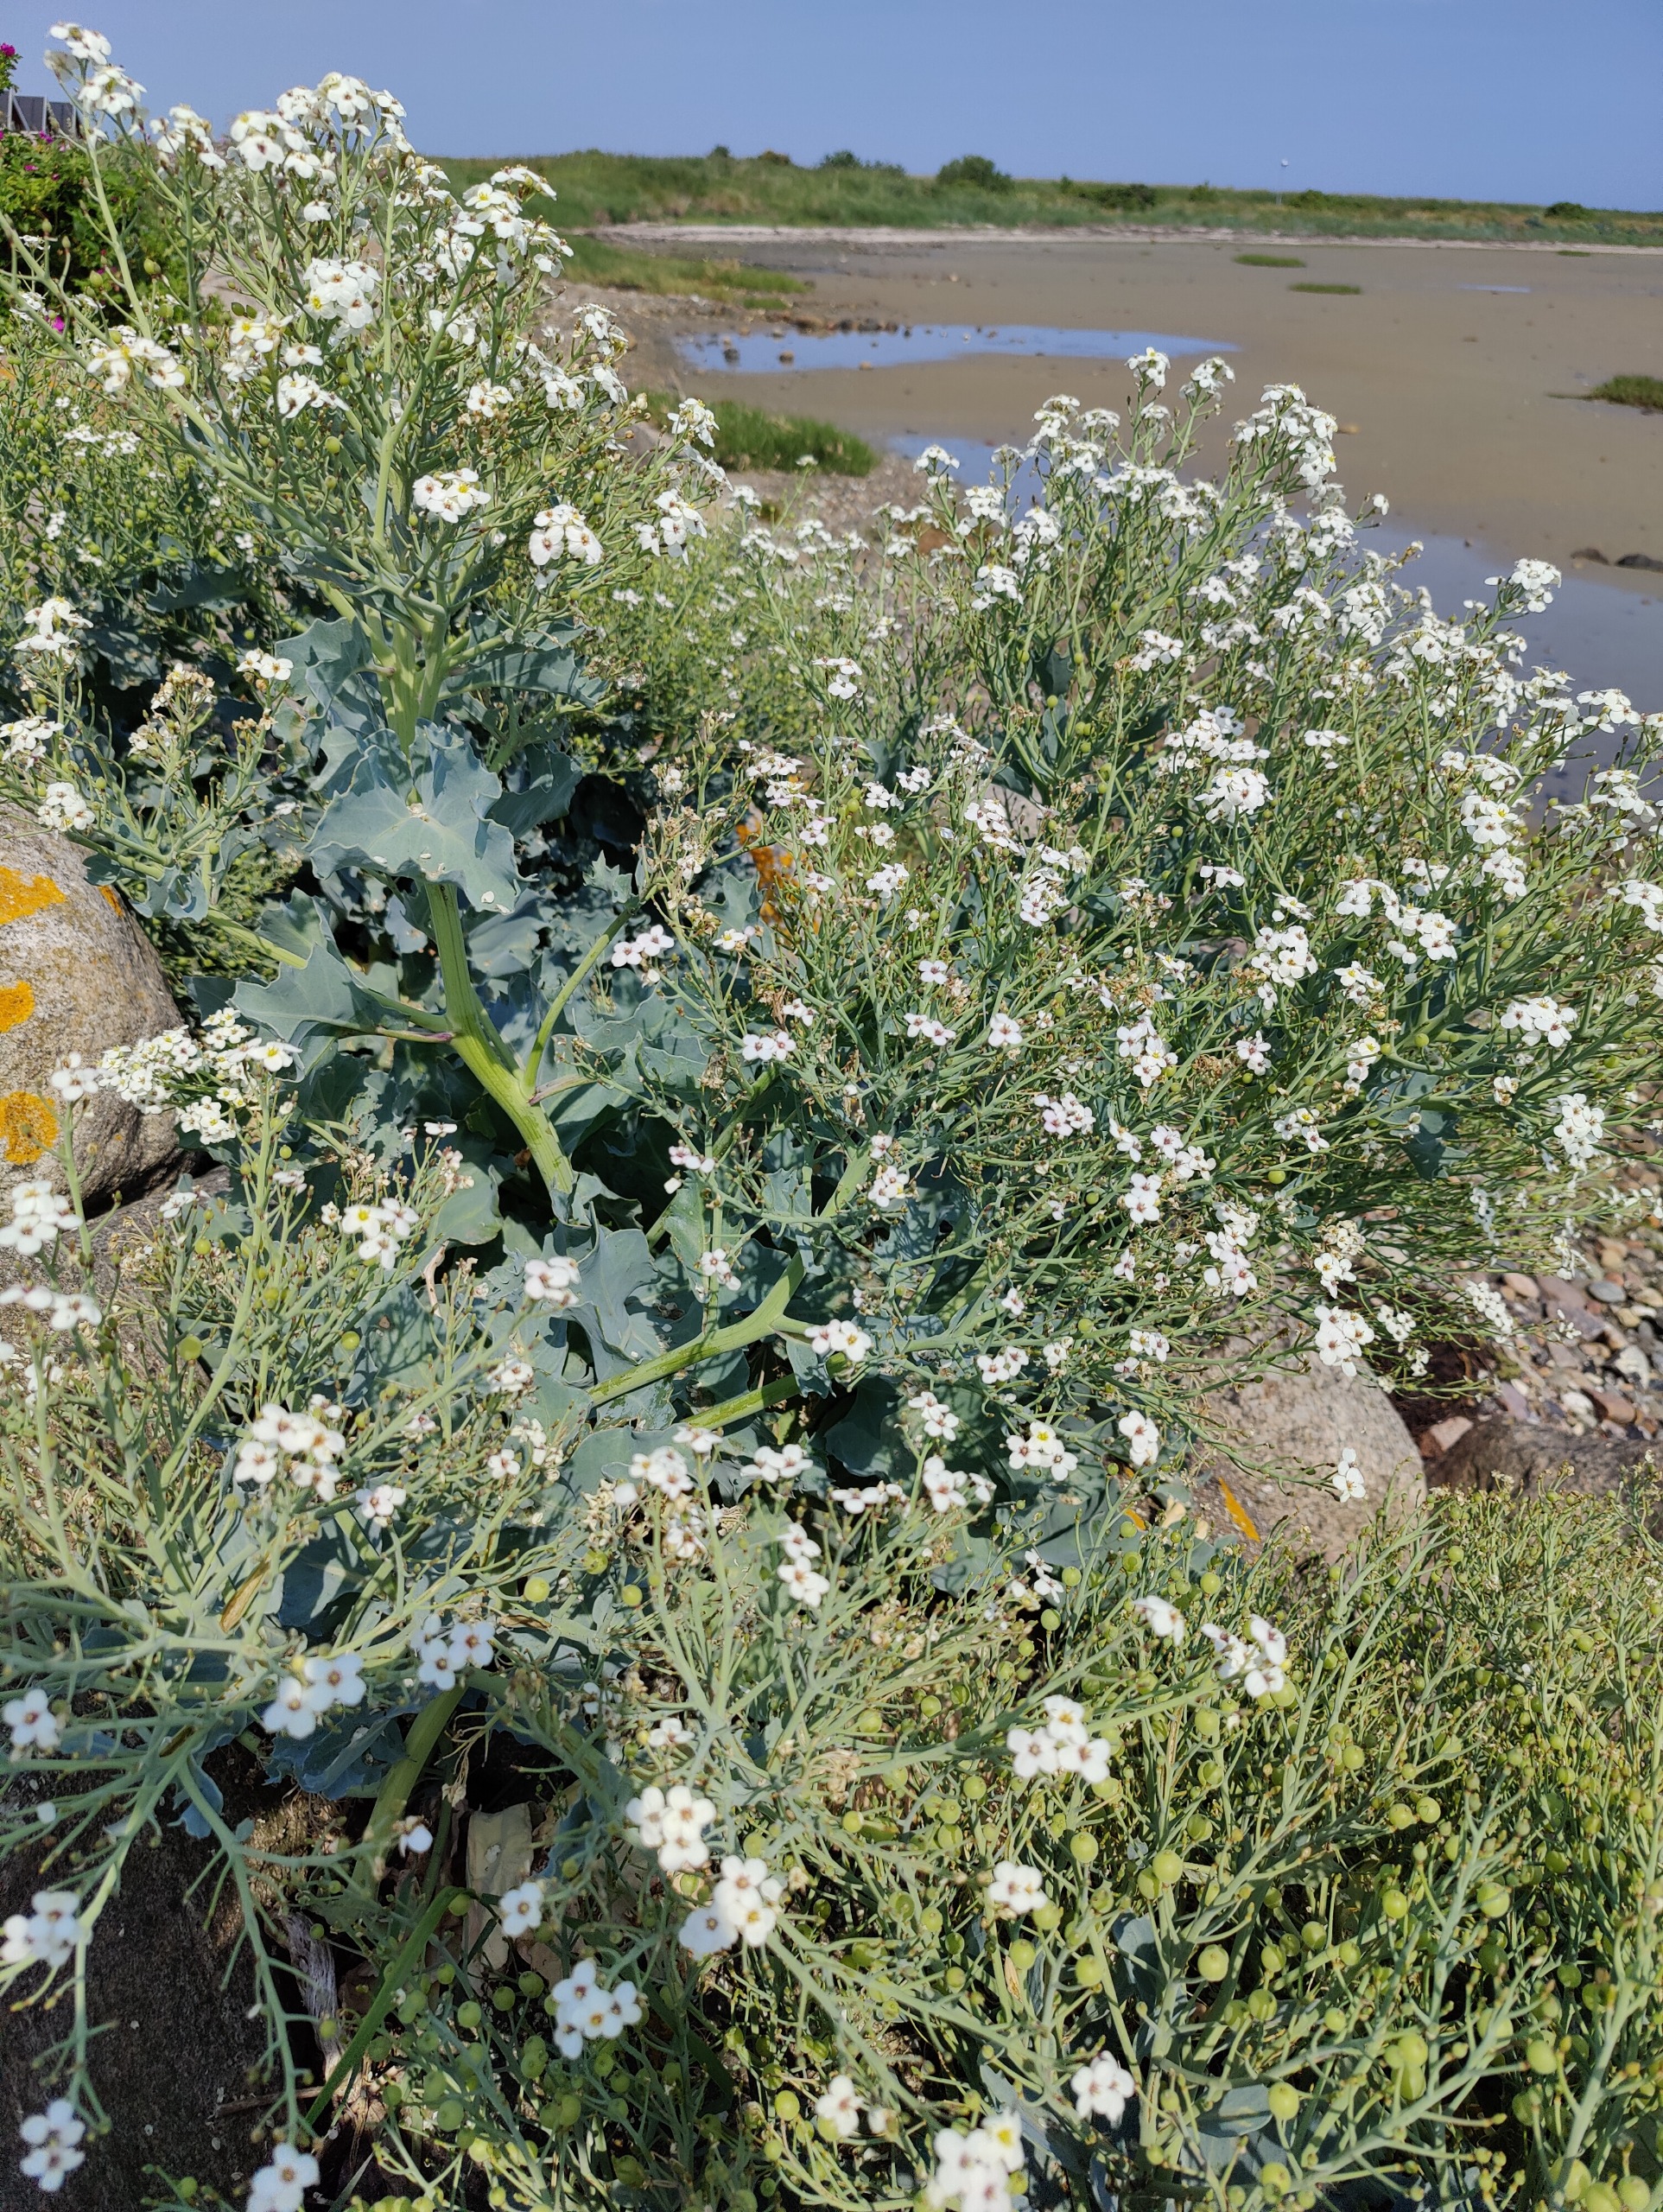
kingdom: Plantae
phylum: Tracheophyta
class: Magnoliopsida
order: Brassicales
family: Brassicaceae
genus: Crambe
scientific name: Crambe maritima
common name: Strandkål
